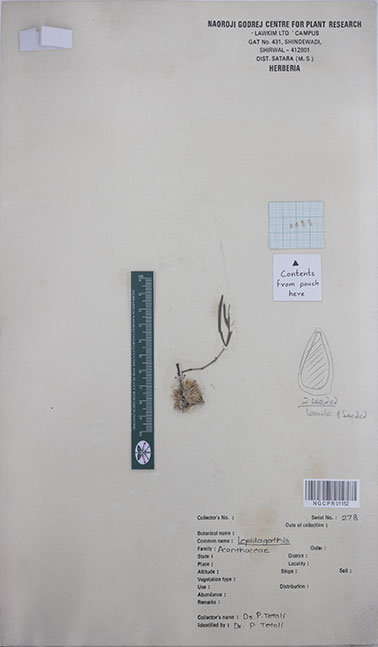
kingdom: Plantae
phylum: Tracheophyta
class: Magnoliopsida
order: Lamiales
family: Acanthaceae
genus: Lepidagathis
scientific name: Lepidagathis trinervis
